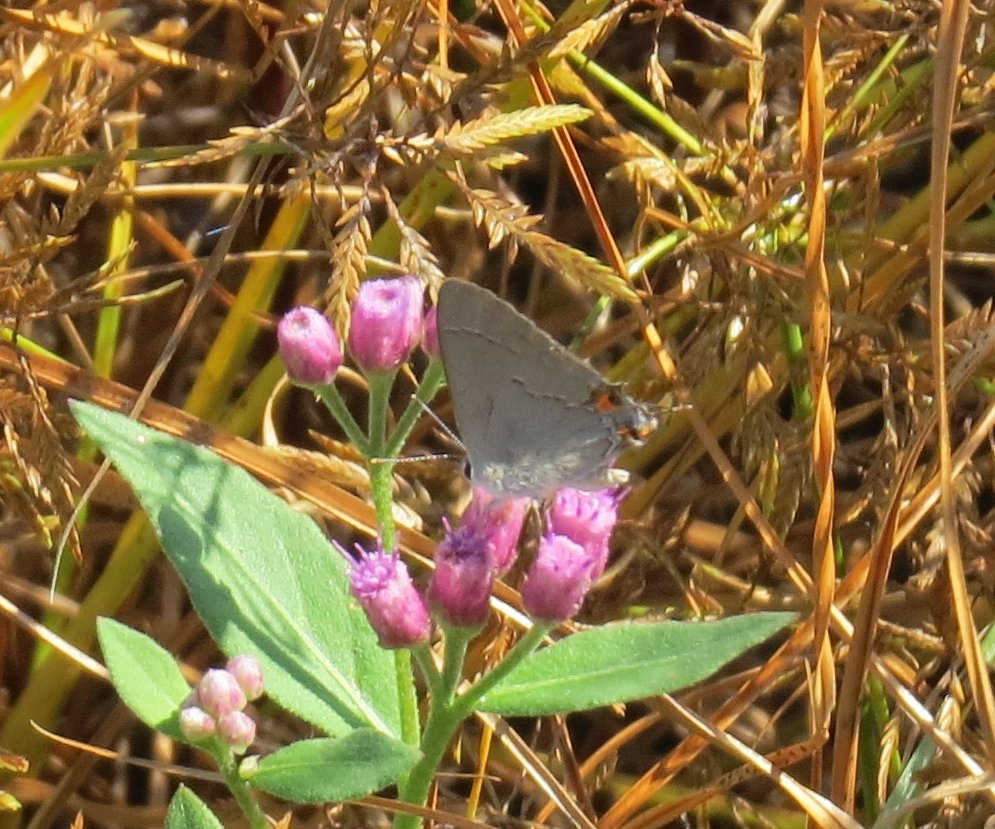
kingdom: Animalia
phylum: Arthropoda
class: Insecta
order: Lepidoptera
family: Lycaenidae
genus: Strymon
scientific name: Strymon melinus
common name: Gray Hairstreak
